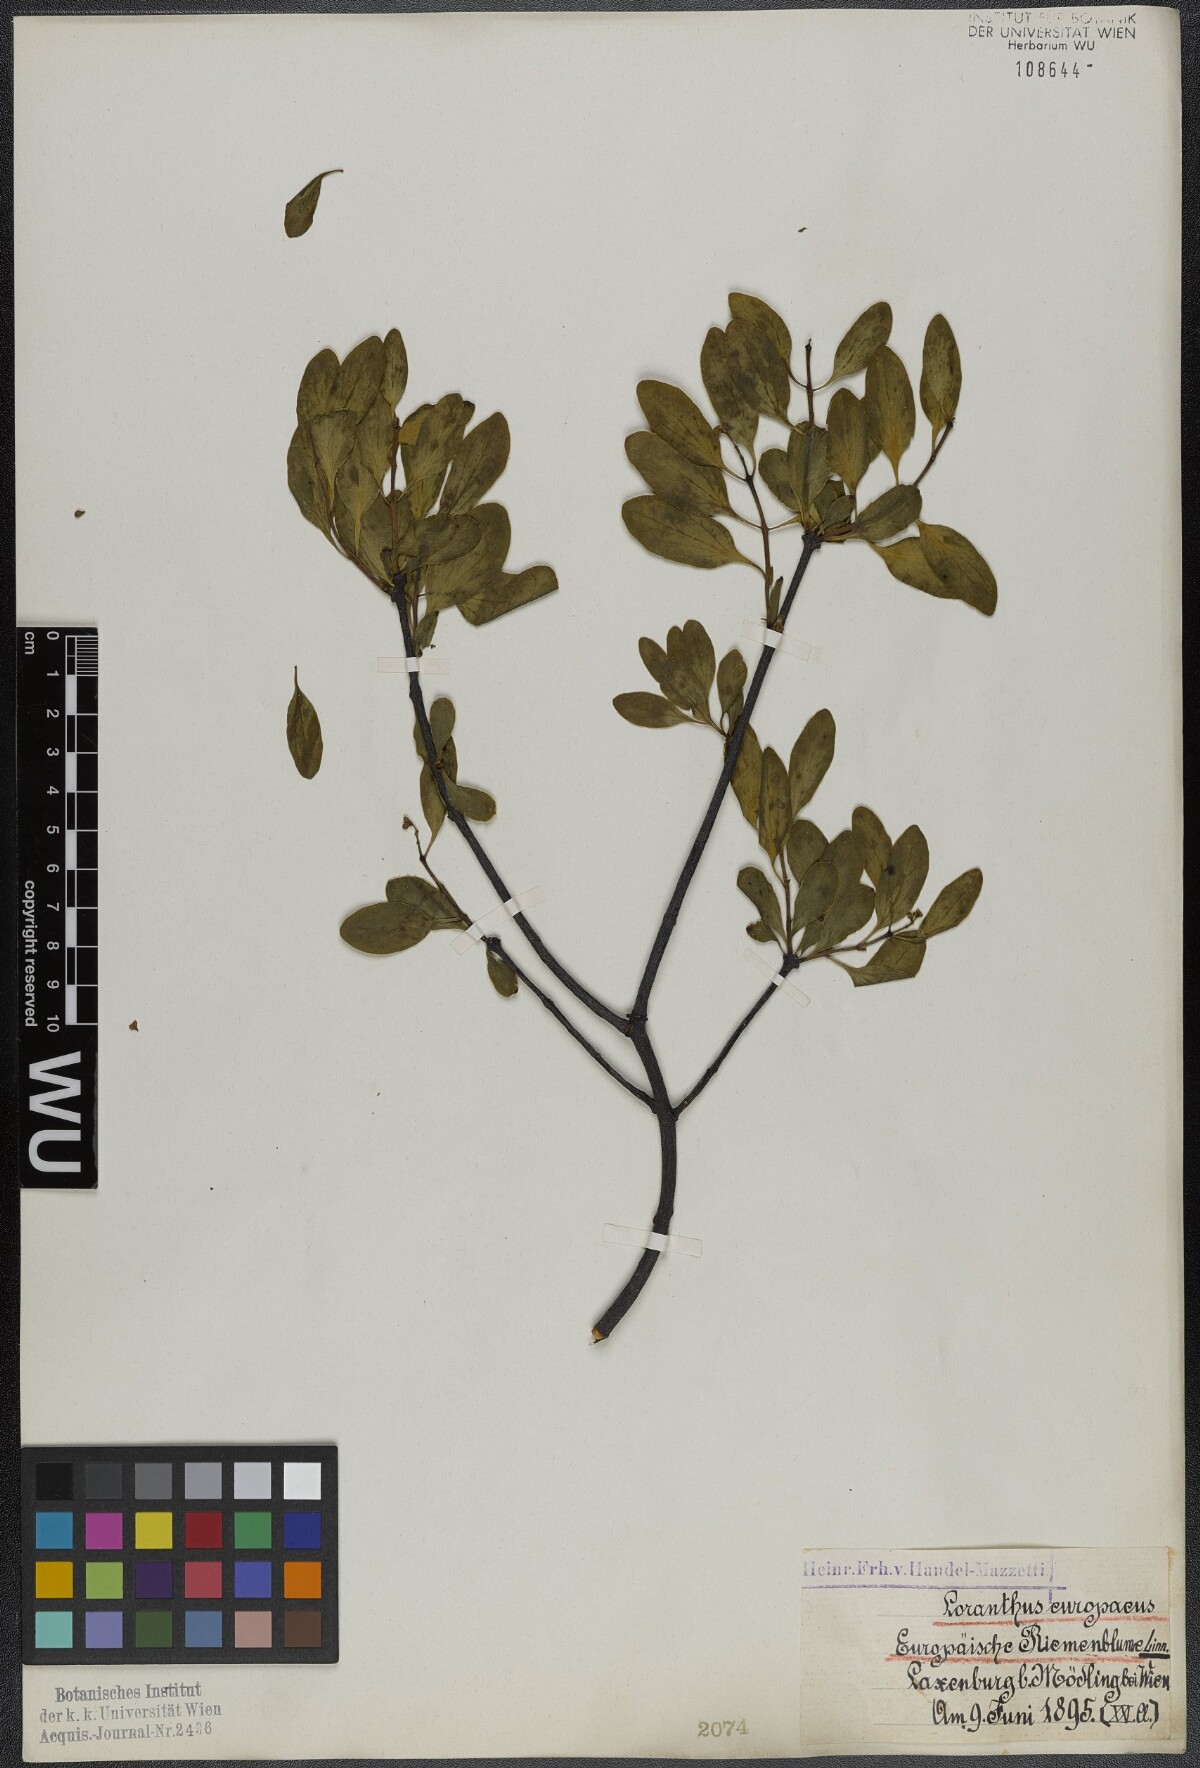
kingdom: Plantae
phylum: Tracheophyta
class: Magnoliopsida
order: Santalales
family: Loranthaceae
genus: Loranthus
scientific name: Loranthus europaeus
